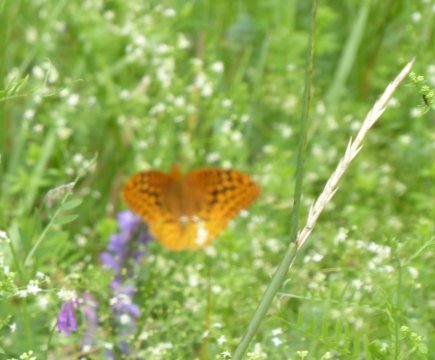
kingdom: Animalia
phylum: Arthropoda
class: Insecta
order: Lepidoptera
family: Nymphalidae
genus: Speyeria
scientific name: Speyeria cybele
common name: Great Spangled Fritillary
